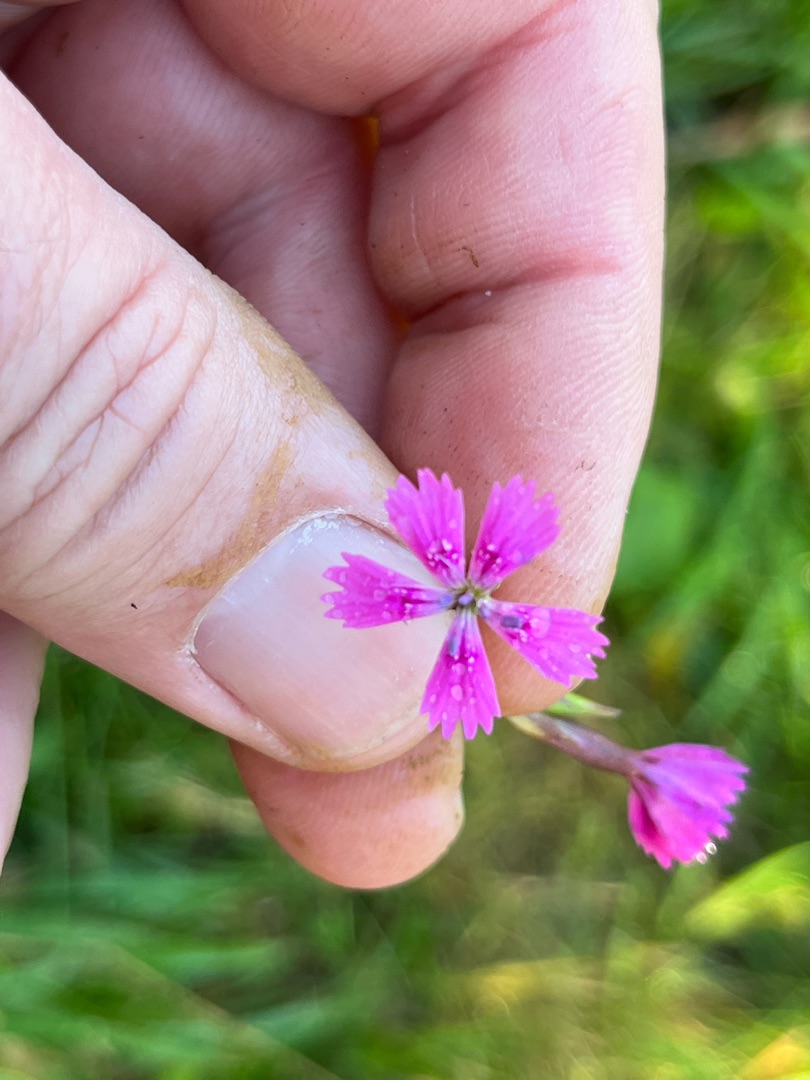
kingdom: Plantae
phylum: Tracheophyta
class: Magnoliopsida
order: Caryophyllales
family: Caryophyllaceae
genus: Dianthus
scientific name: Dianthus deltoides
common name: Bakke-nellike
